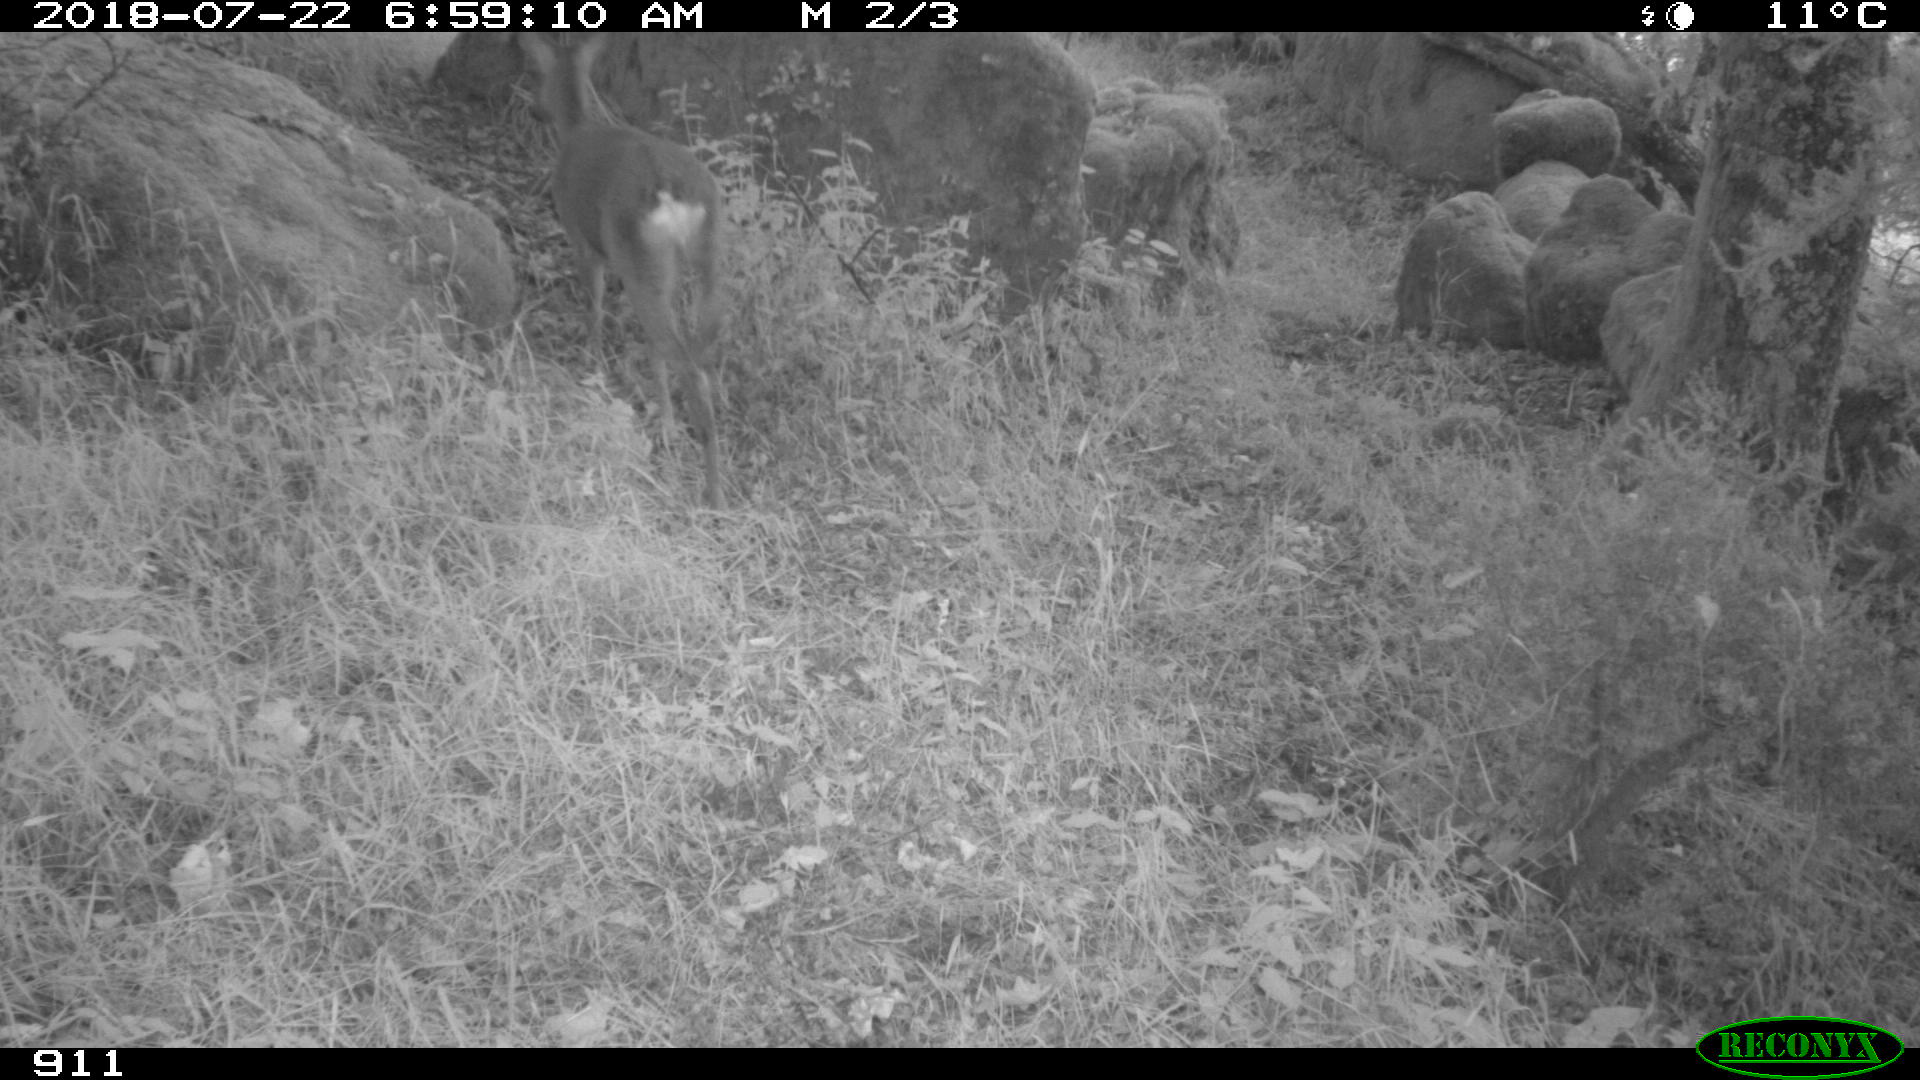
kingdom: Animalia
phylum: Chordata
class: Mammalia
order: Artiodactyla
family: Cervidae
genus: Capreolus
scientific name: Capreolus capreolus
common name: Western roe deer
